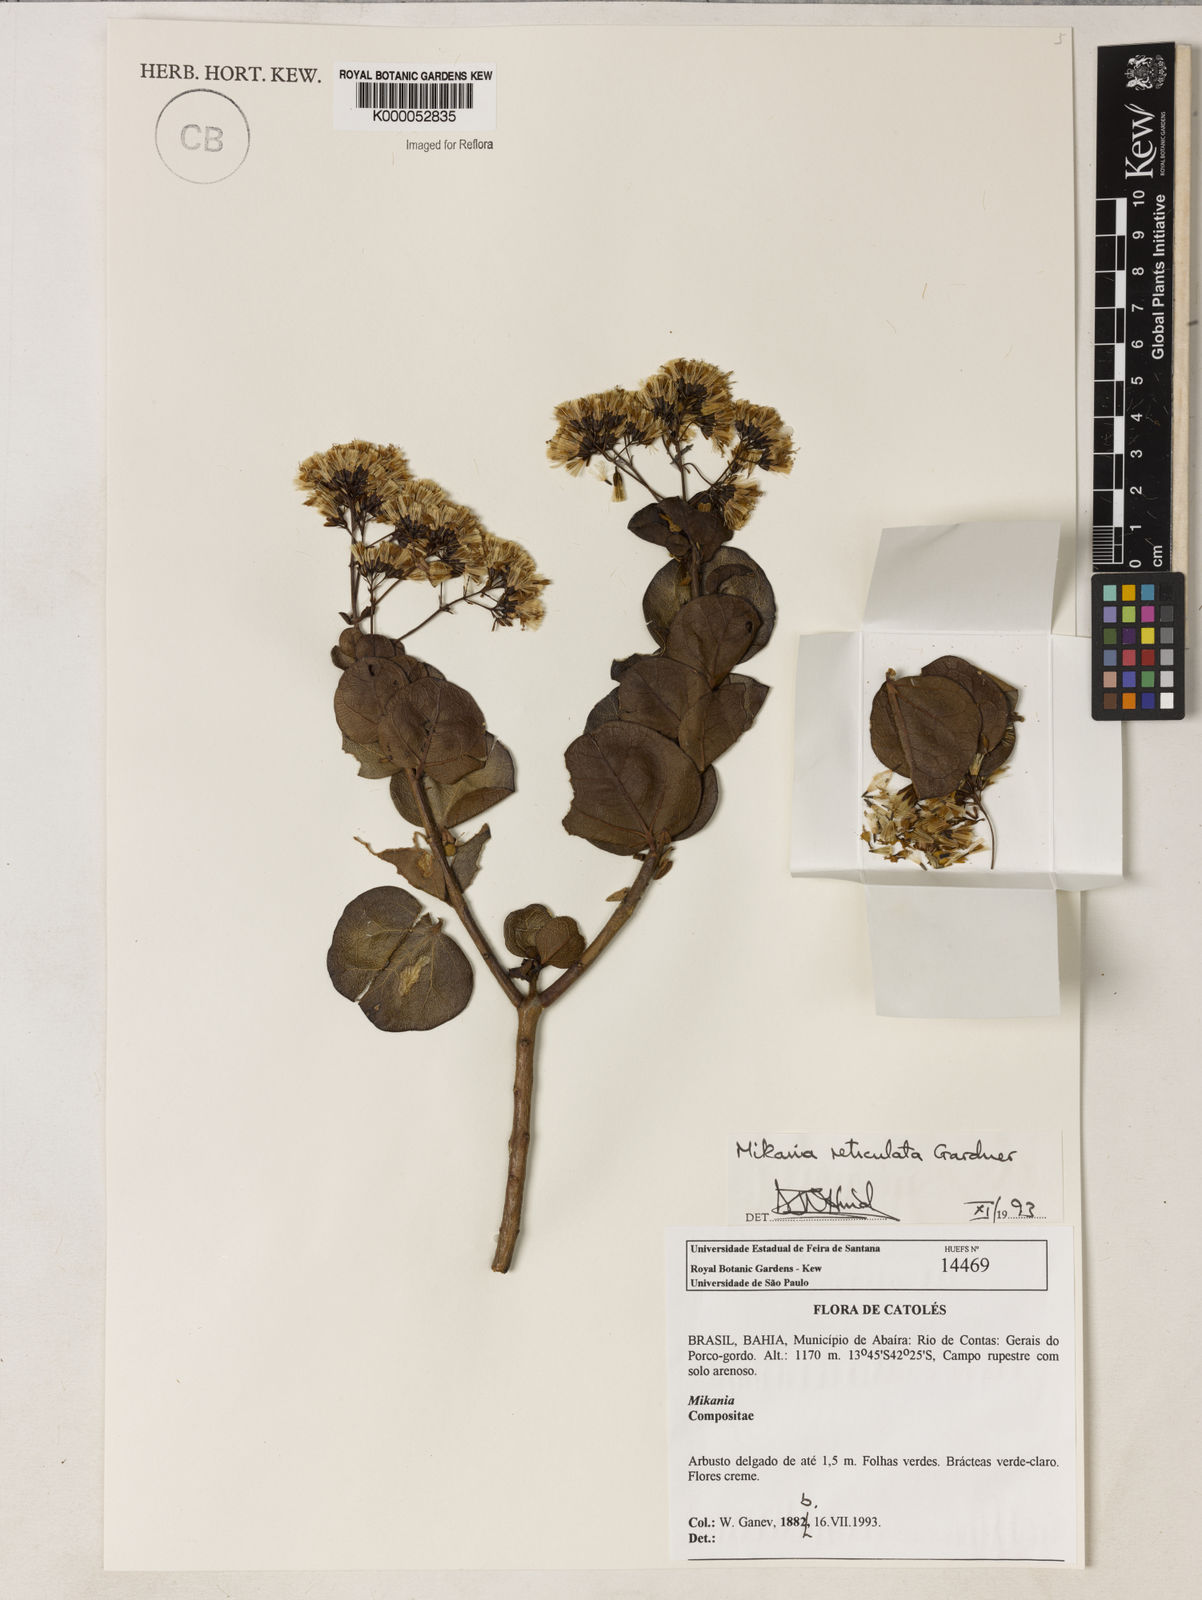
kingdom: Plantae
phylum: Tracheophyta
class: Magnoliopsida
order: Asterales
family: Asteraceae
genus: Mikania
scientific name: Mikania reticulata
